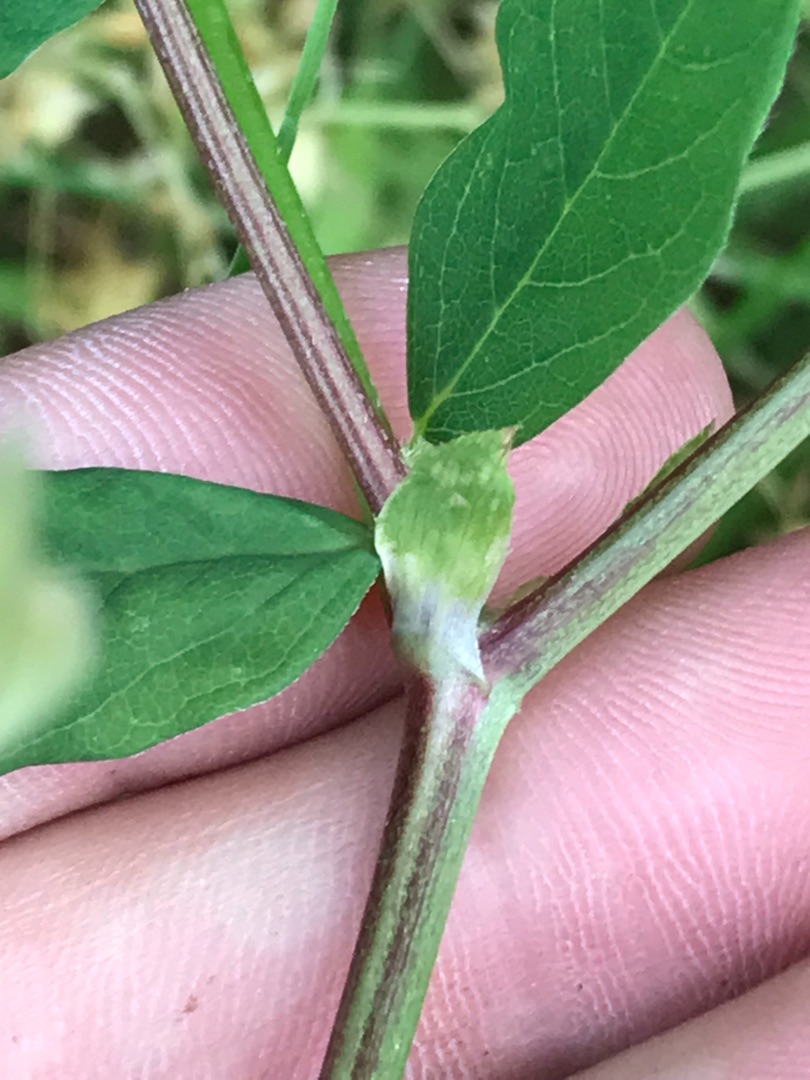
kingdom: Plantae
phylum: Tracheophyta
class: Magnoliopsida
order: Fabales
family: Fabaceae
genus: Astragalus
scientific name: Astragalus glycyphyllos
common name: Sød astragel
